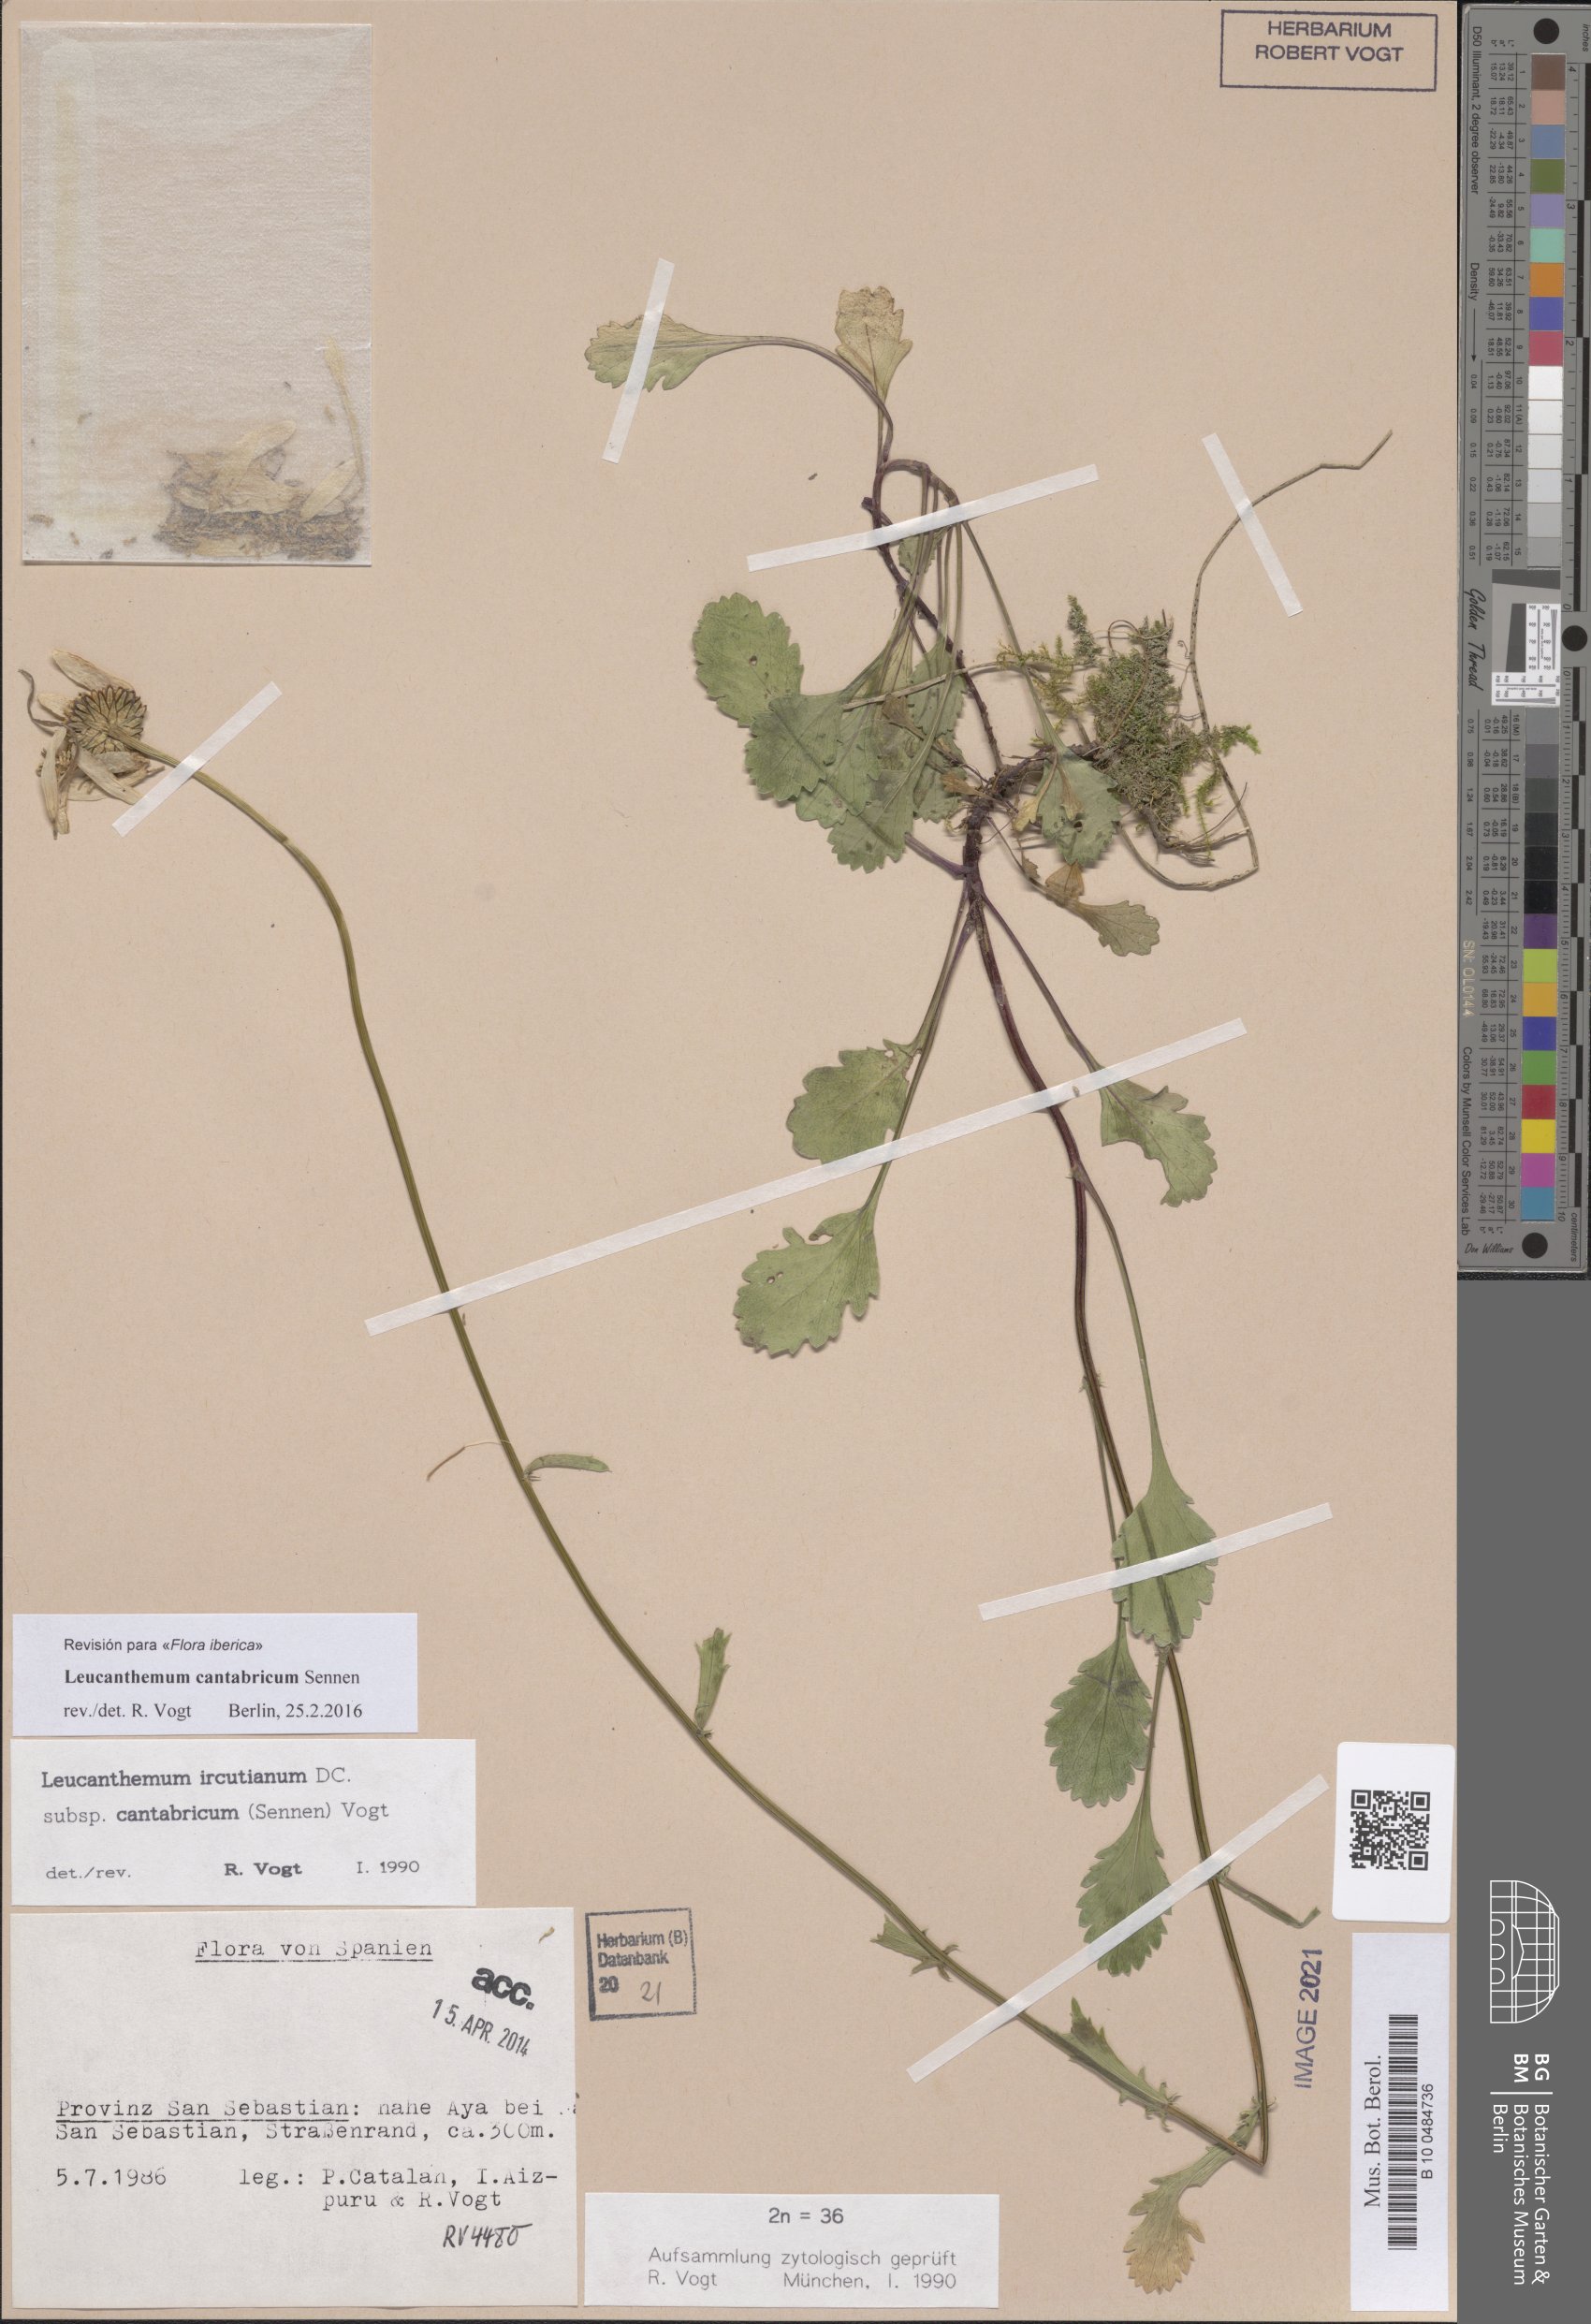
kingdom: Plantae
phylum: Tracheophyta
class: Magnoliopsida
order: Asterales
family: Asteraceae
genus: Leucanthemum
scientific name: Leucanthemum cantabricum
